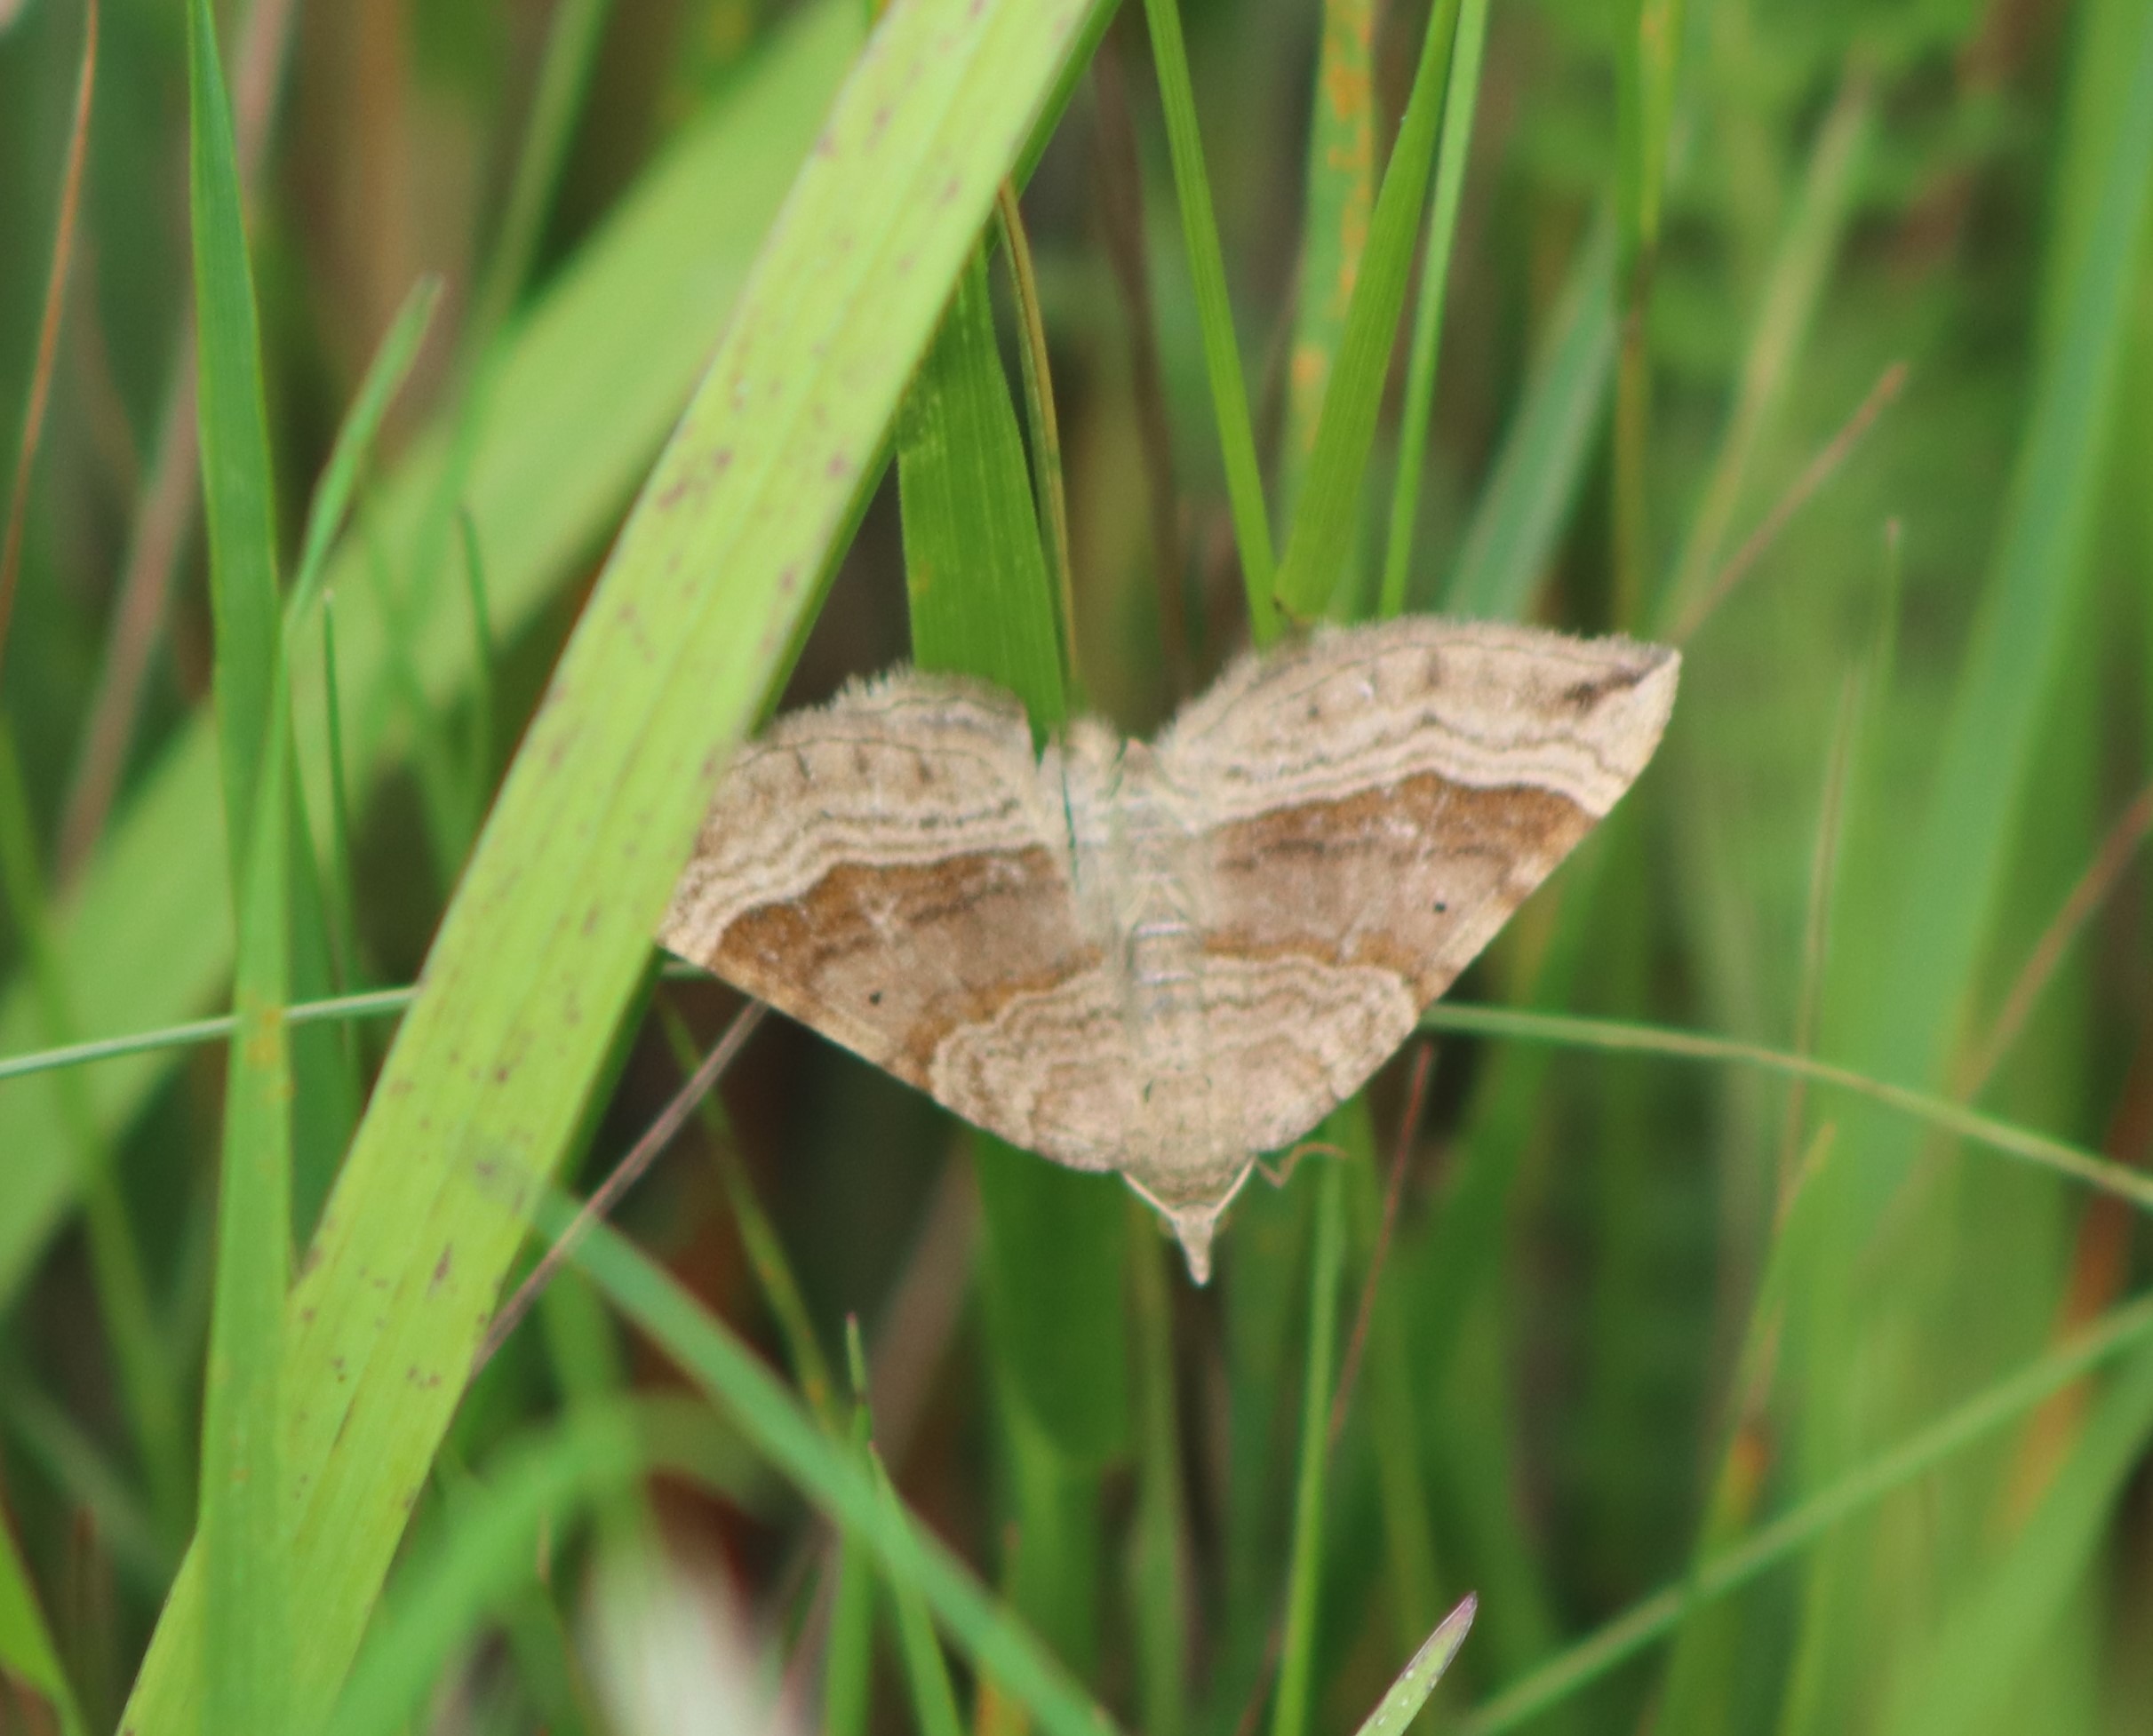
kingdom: Animalia
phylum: Arthropoda
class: Insecta
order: Lepidoptera
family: Geometridae
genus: Scotopteryx
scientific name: Scotopteryx chenopodiata
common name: Almindelig spidsvingemåler
